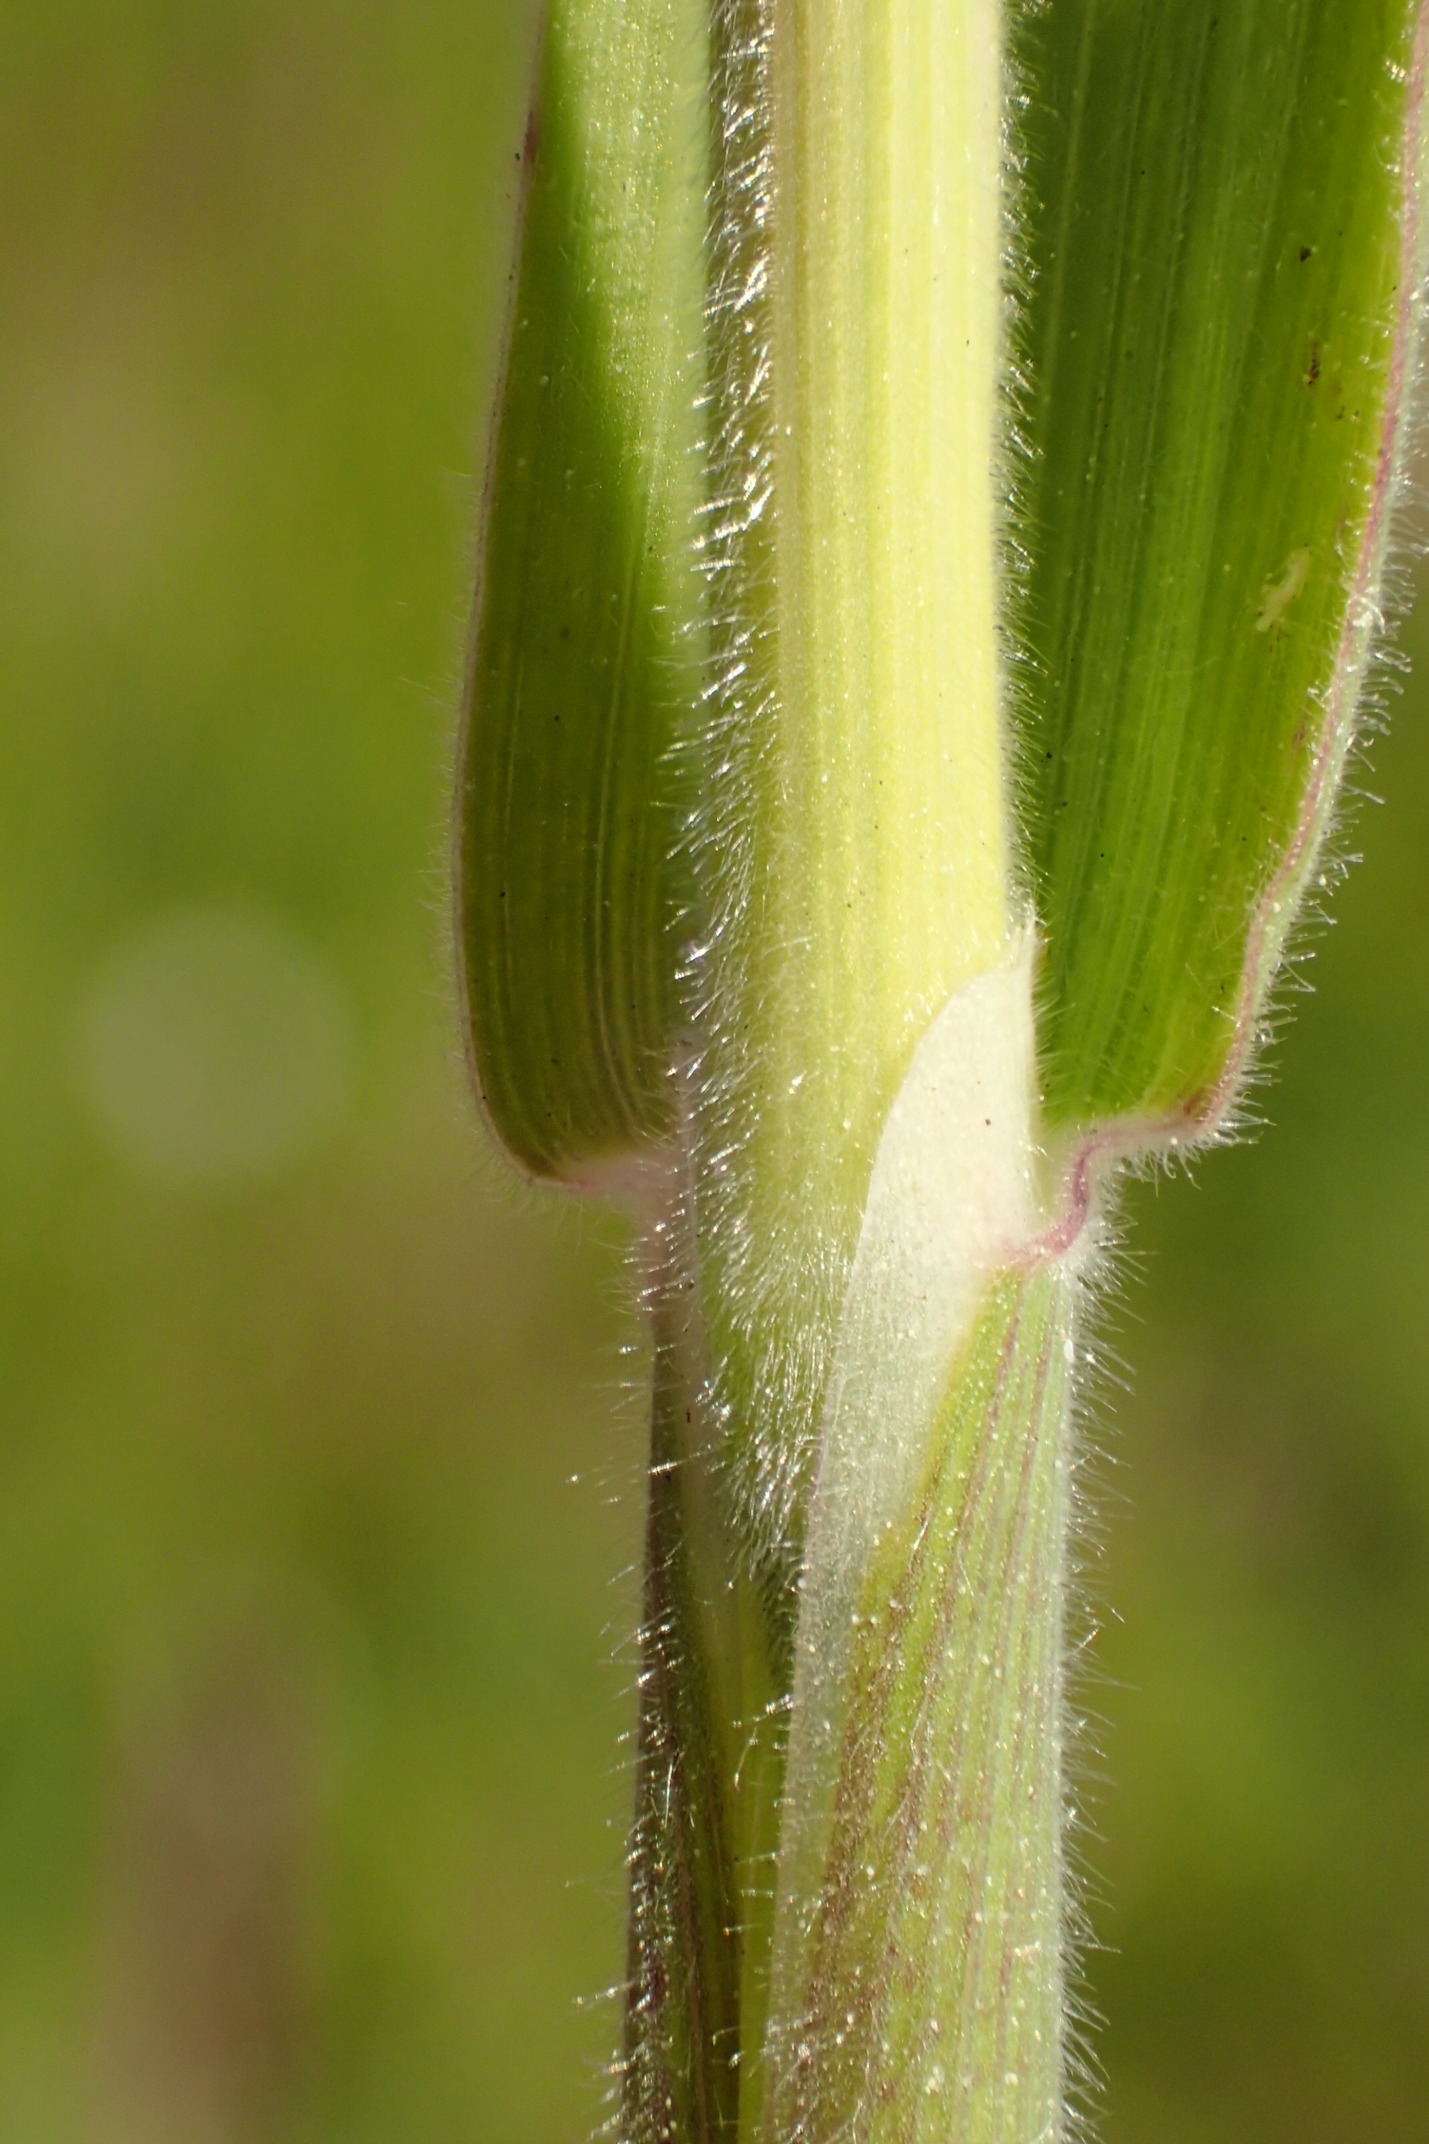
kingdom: Plantae
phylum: Tracheophyta
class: Liliopsida
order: Poales
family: Poaceae
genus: Holcus
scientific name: Holcus lanatus
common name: Fløjlsgræs
